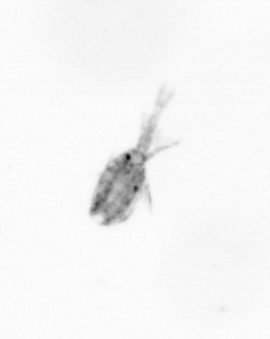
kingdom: Animalia
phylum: Arthropoda
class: Copepoda
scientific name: Copepoda
